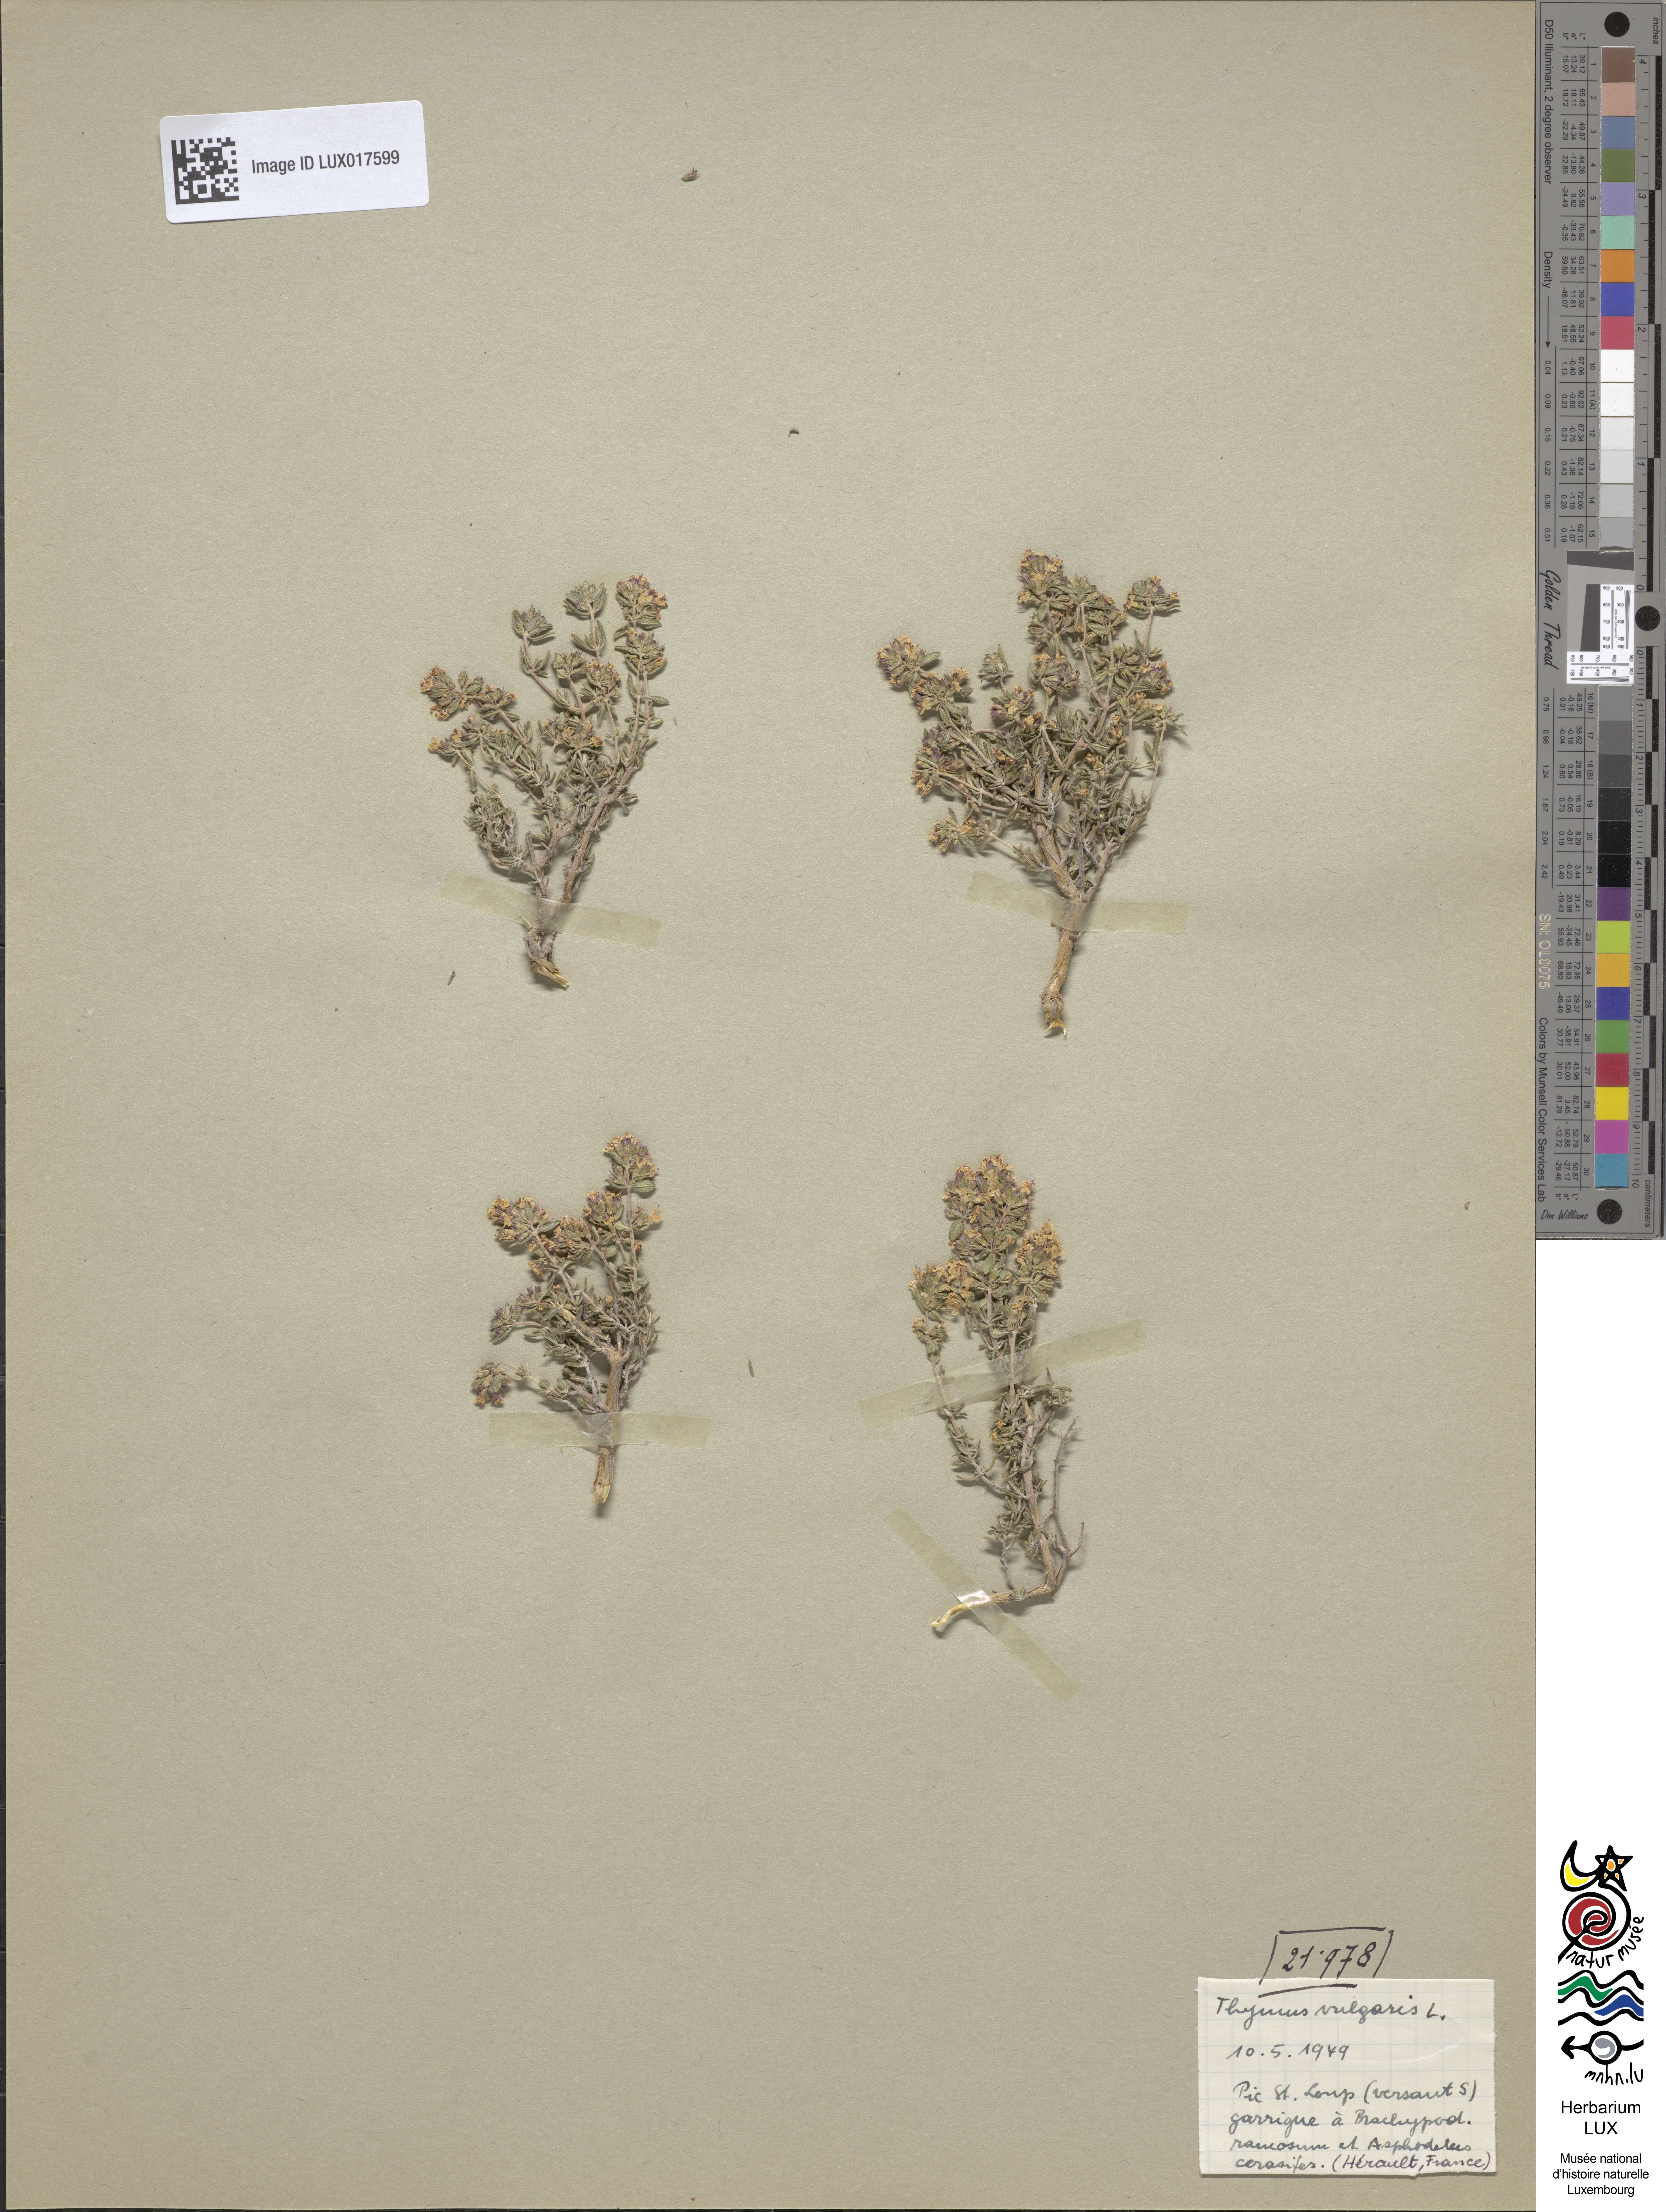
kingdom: Plantae
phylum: Tracheophyta
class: Magnoliopsida
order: Lamiales
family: Lamiaceae
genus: Thymus
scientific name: Thymus vulgaris
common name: Garden thyme
